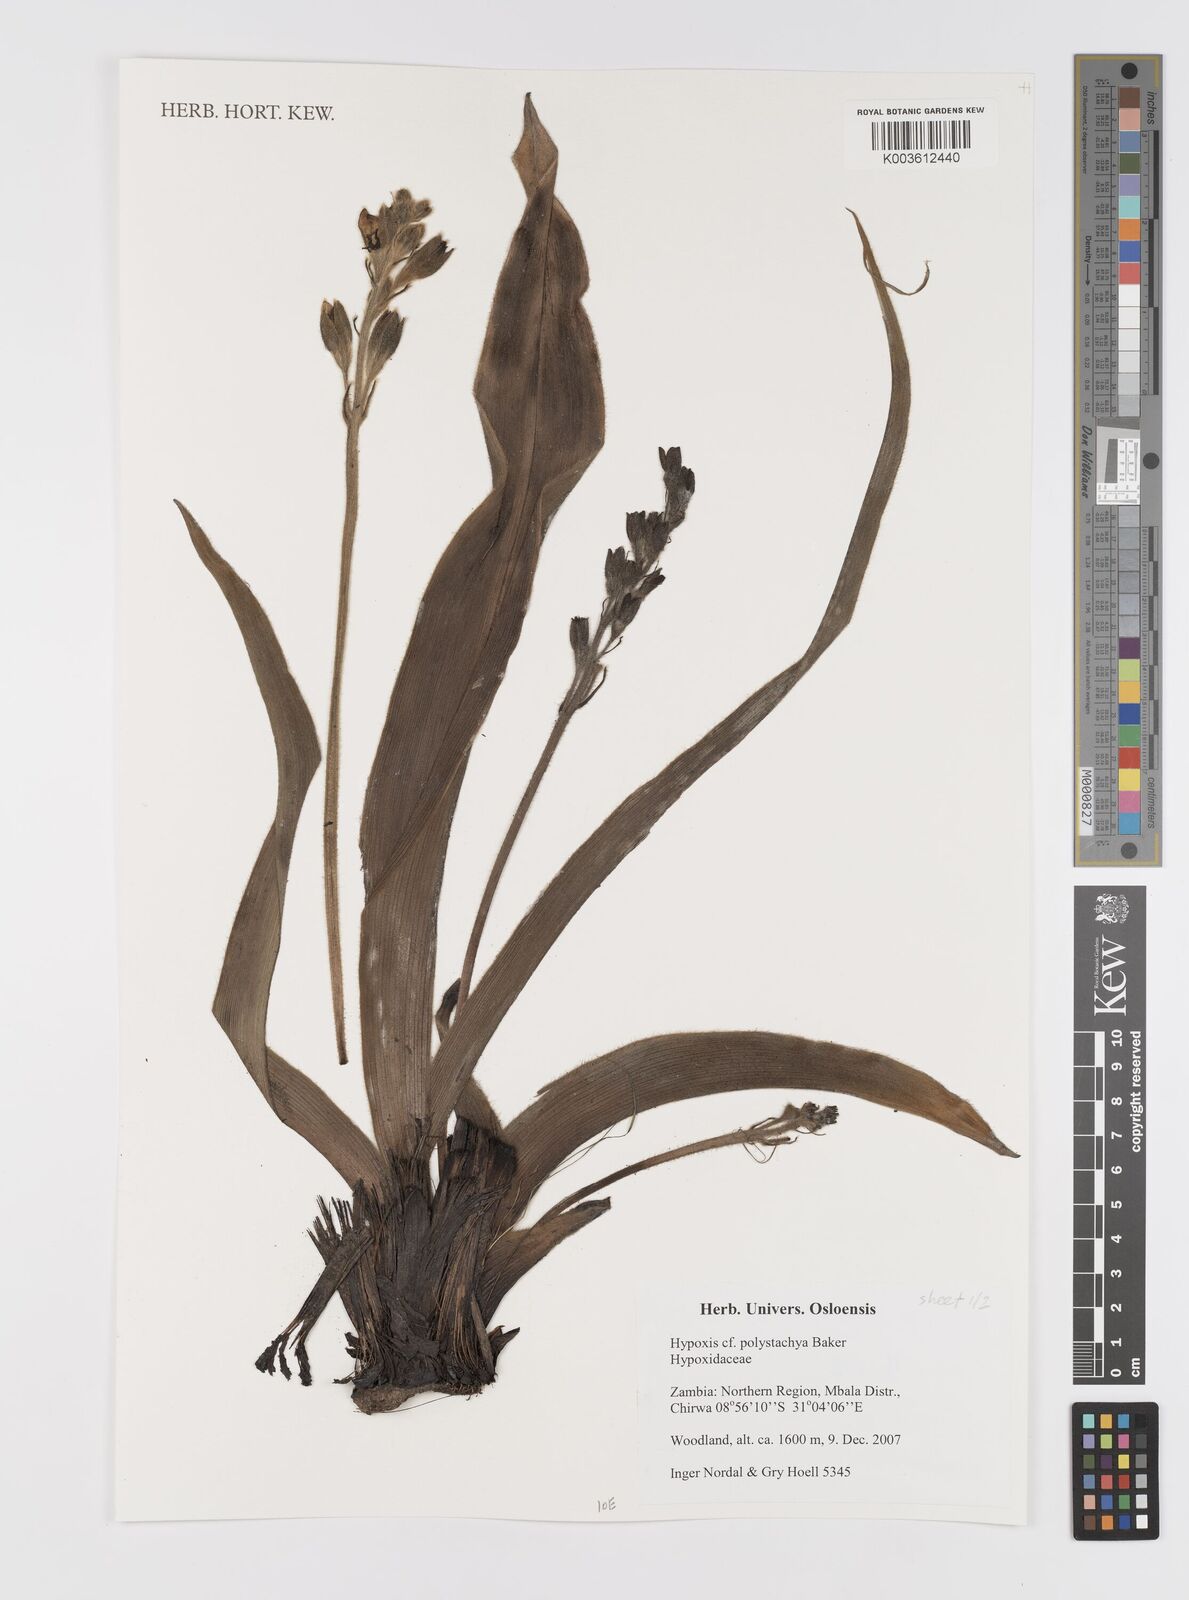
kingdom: Plantae
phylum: Tracheophyta
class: Liliopsida
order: Asparagales
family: Hypoxidaceae
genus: Hypoxis
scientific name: Hypoxis polystachya
